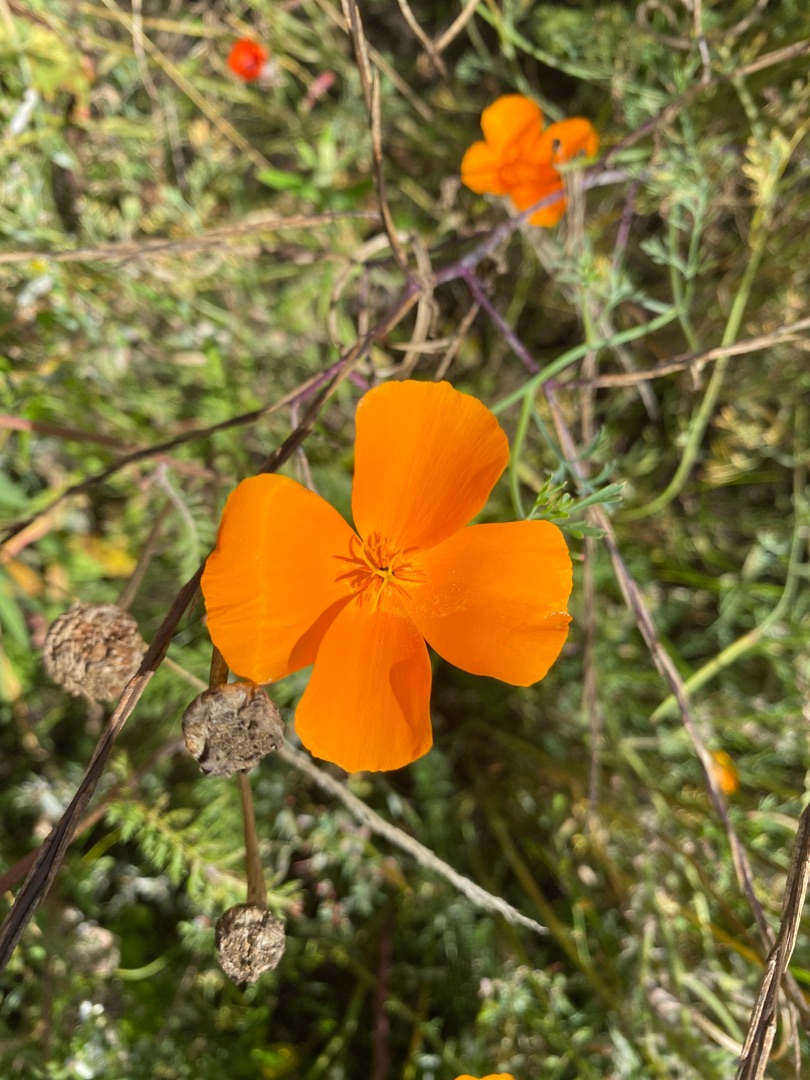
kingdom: Plantae
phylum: Tracheophyta
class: Magnoliopsida
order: Ranunculales
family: Papaveraceae
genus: Eschscholzia
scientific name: Eschscholzia californica
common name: Guldvalmue
